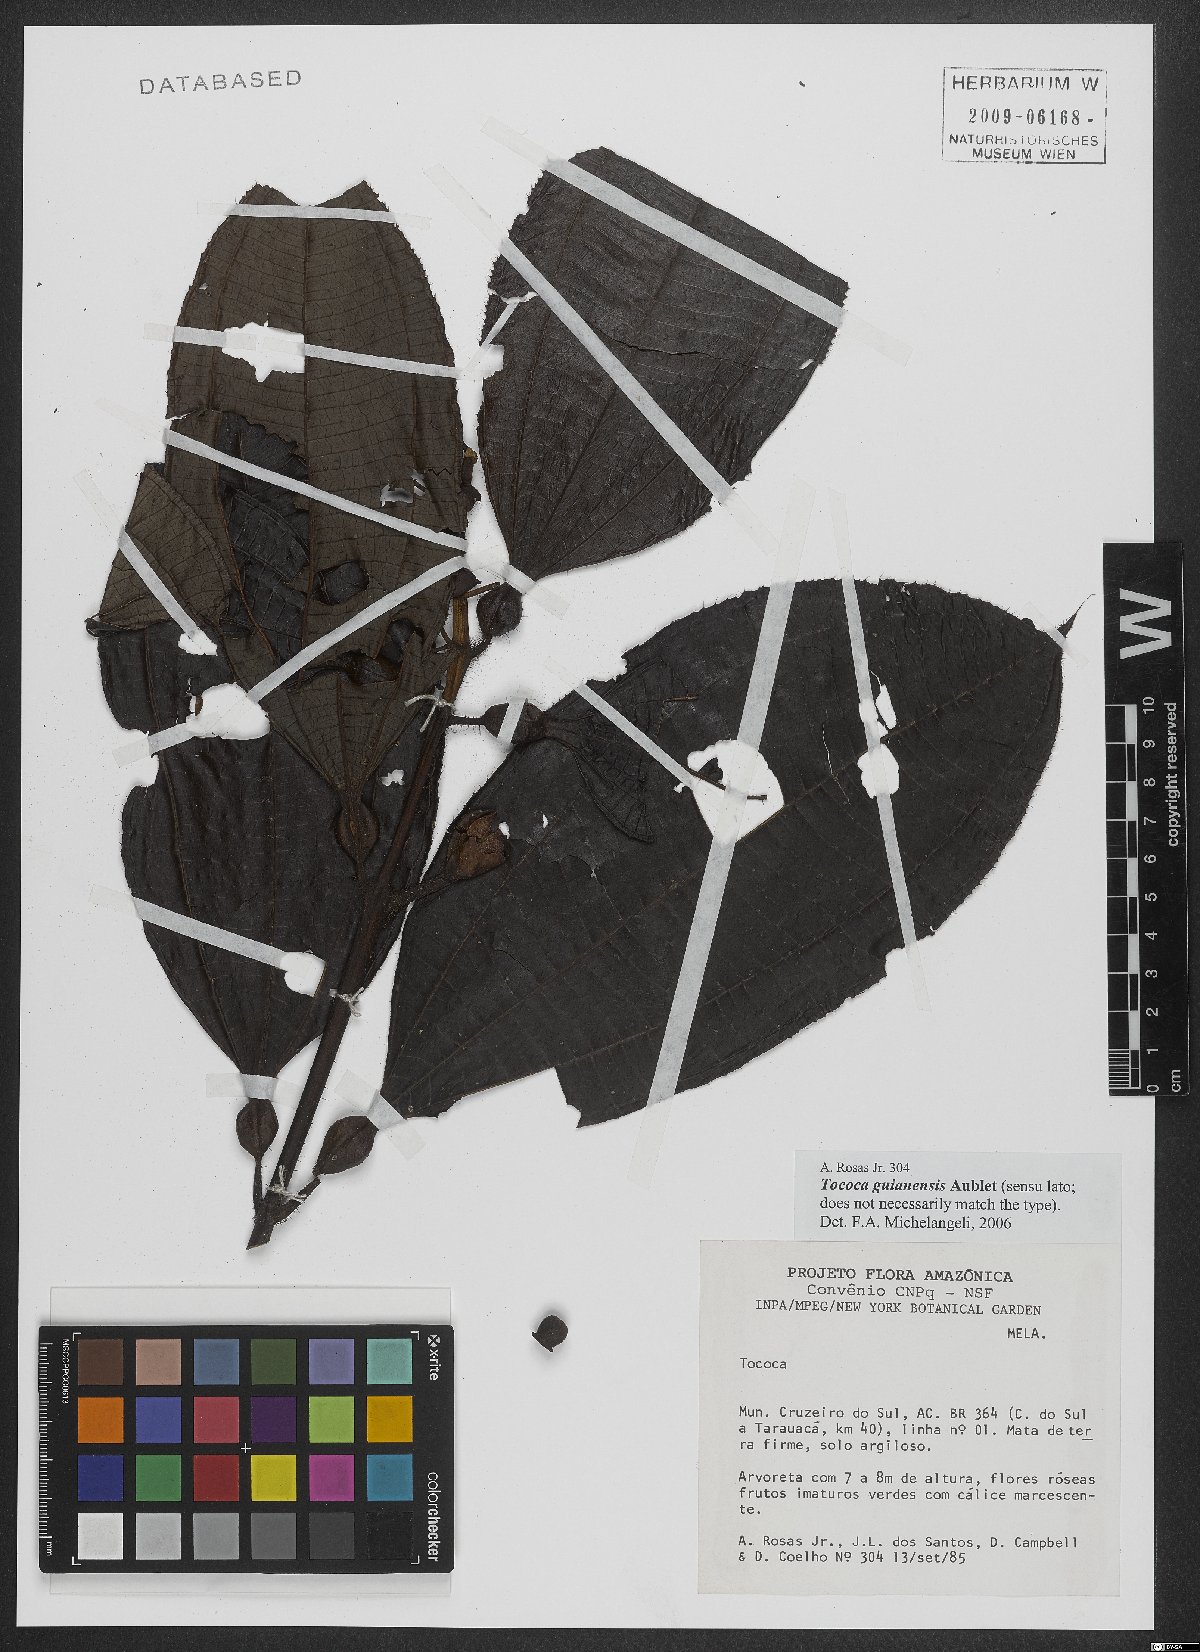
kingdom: Plantae
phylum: Tracheophyta
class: Magnoliopsida
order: Myrtales
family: Melastomataceae
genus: Miconia
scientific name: Miconia tococa
